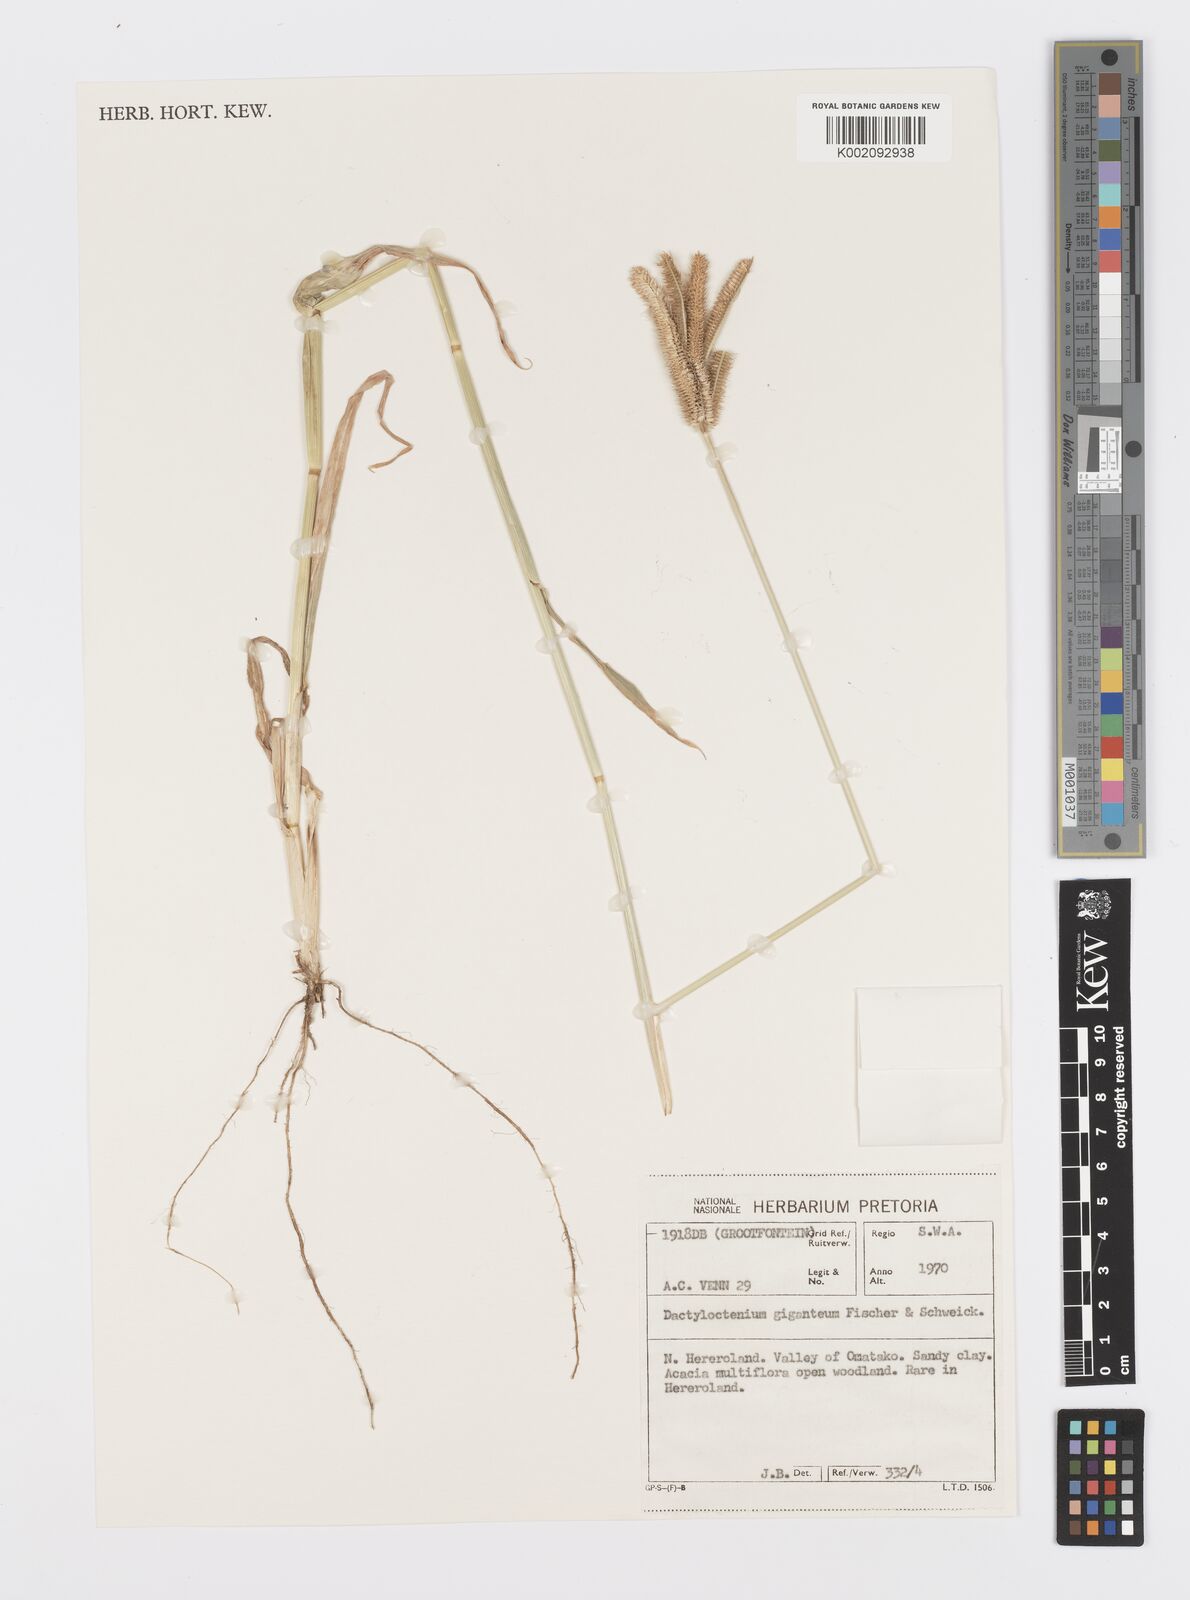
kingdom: Plantae
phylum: Tracheophyta
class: Liliopsida
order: Poales
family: Poaceae
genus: Dactyloctenium
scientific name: Dactyloctenium giganteum
